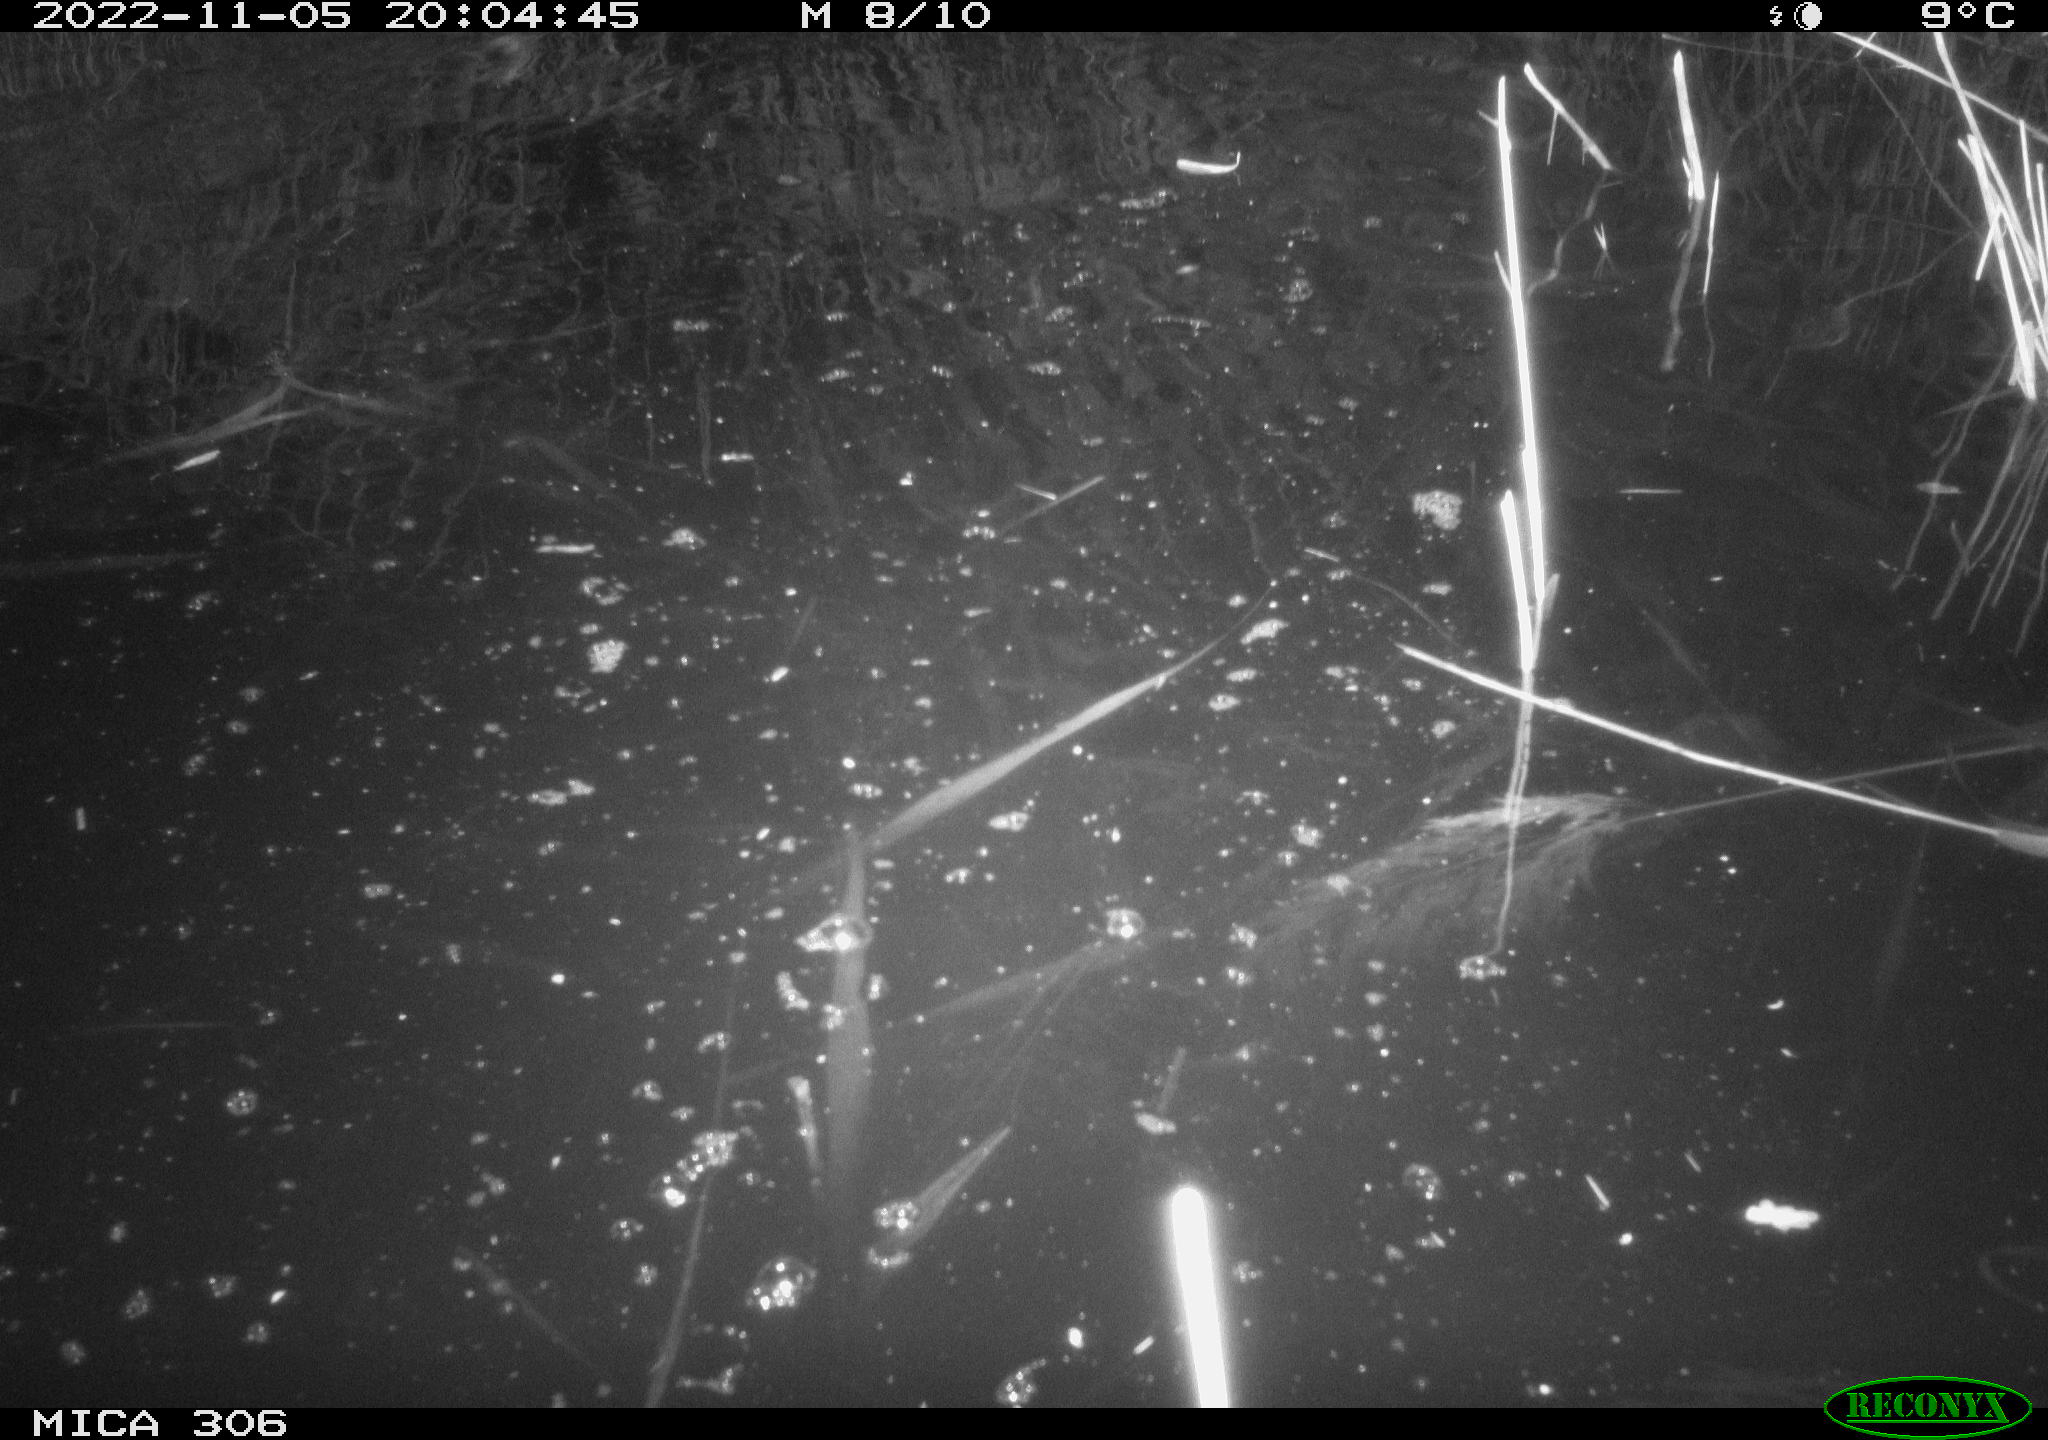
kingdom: Animalia
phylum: Chordata
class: Mammalia
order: Rodentia
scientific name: Rodentia
